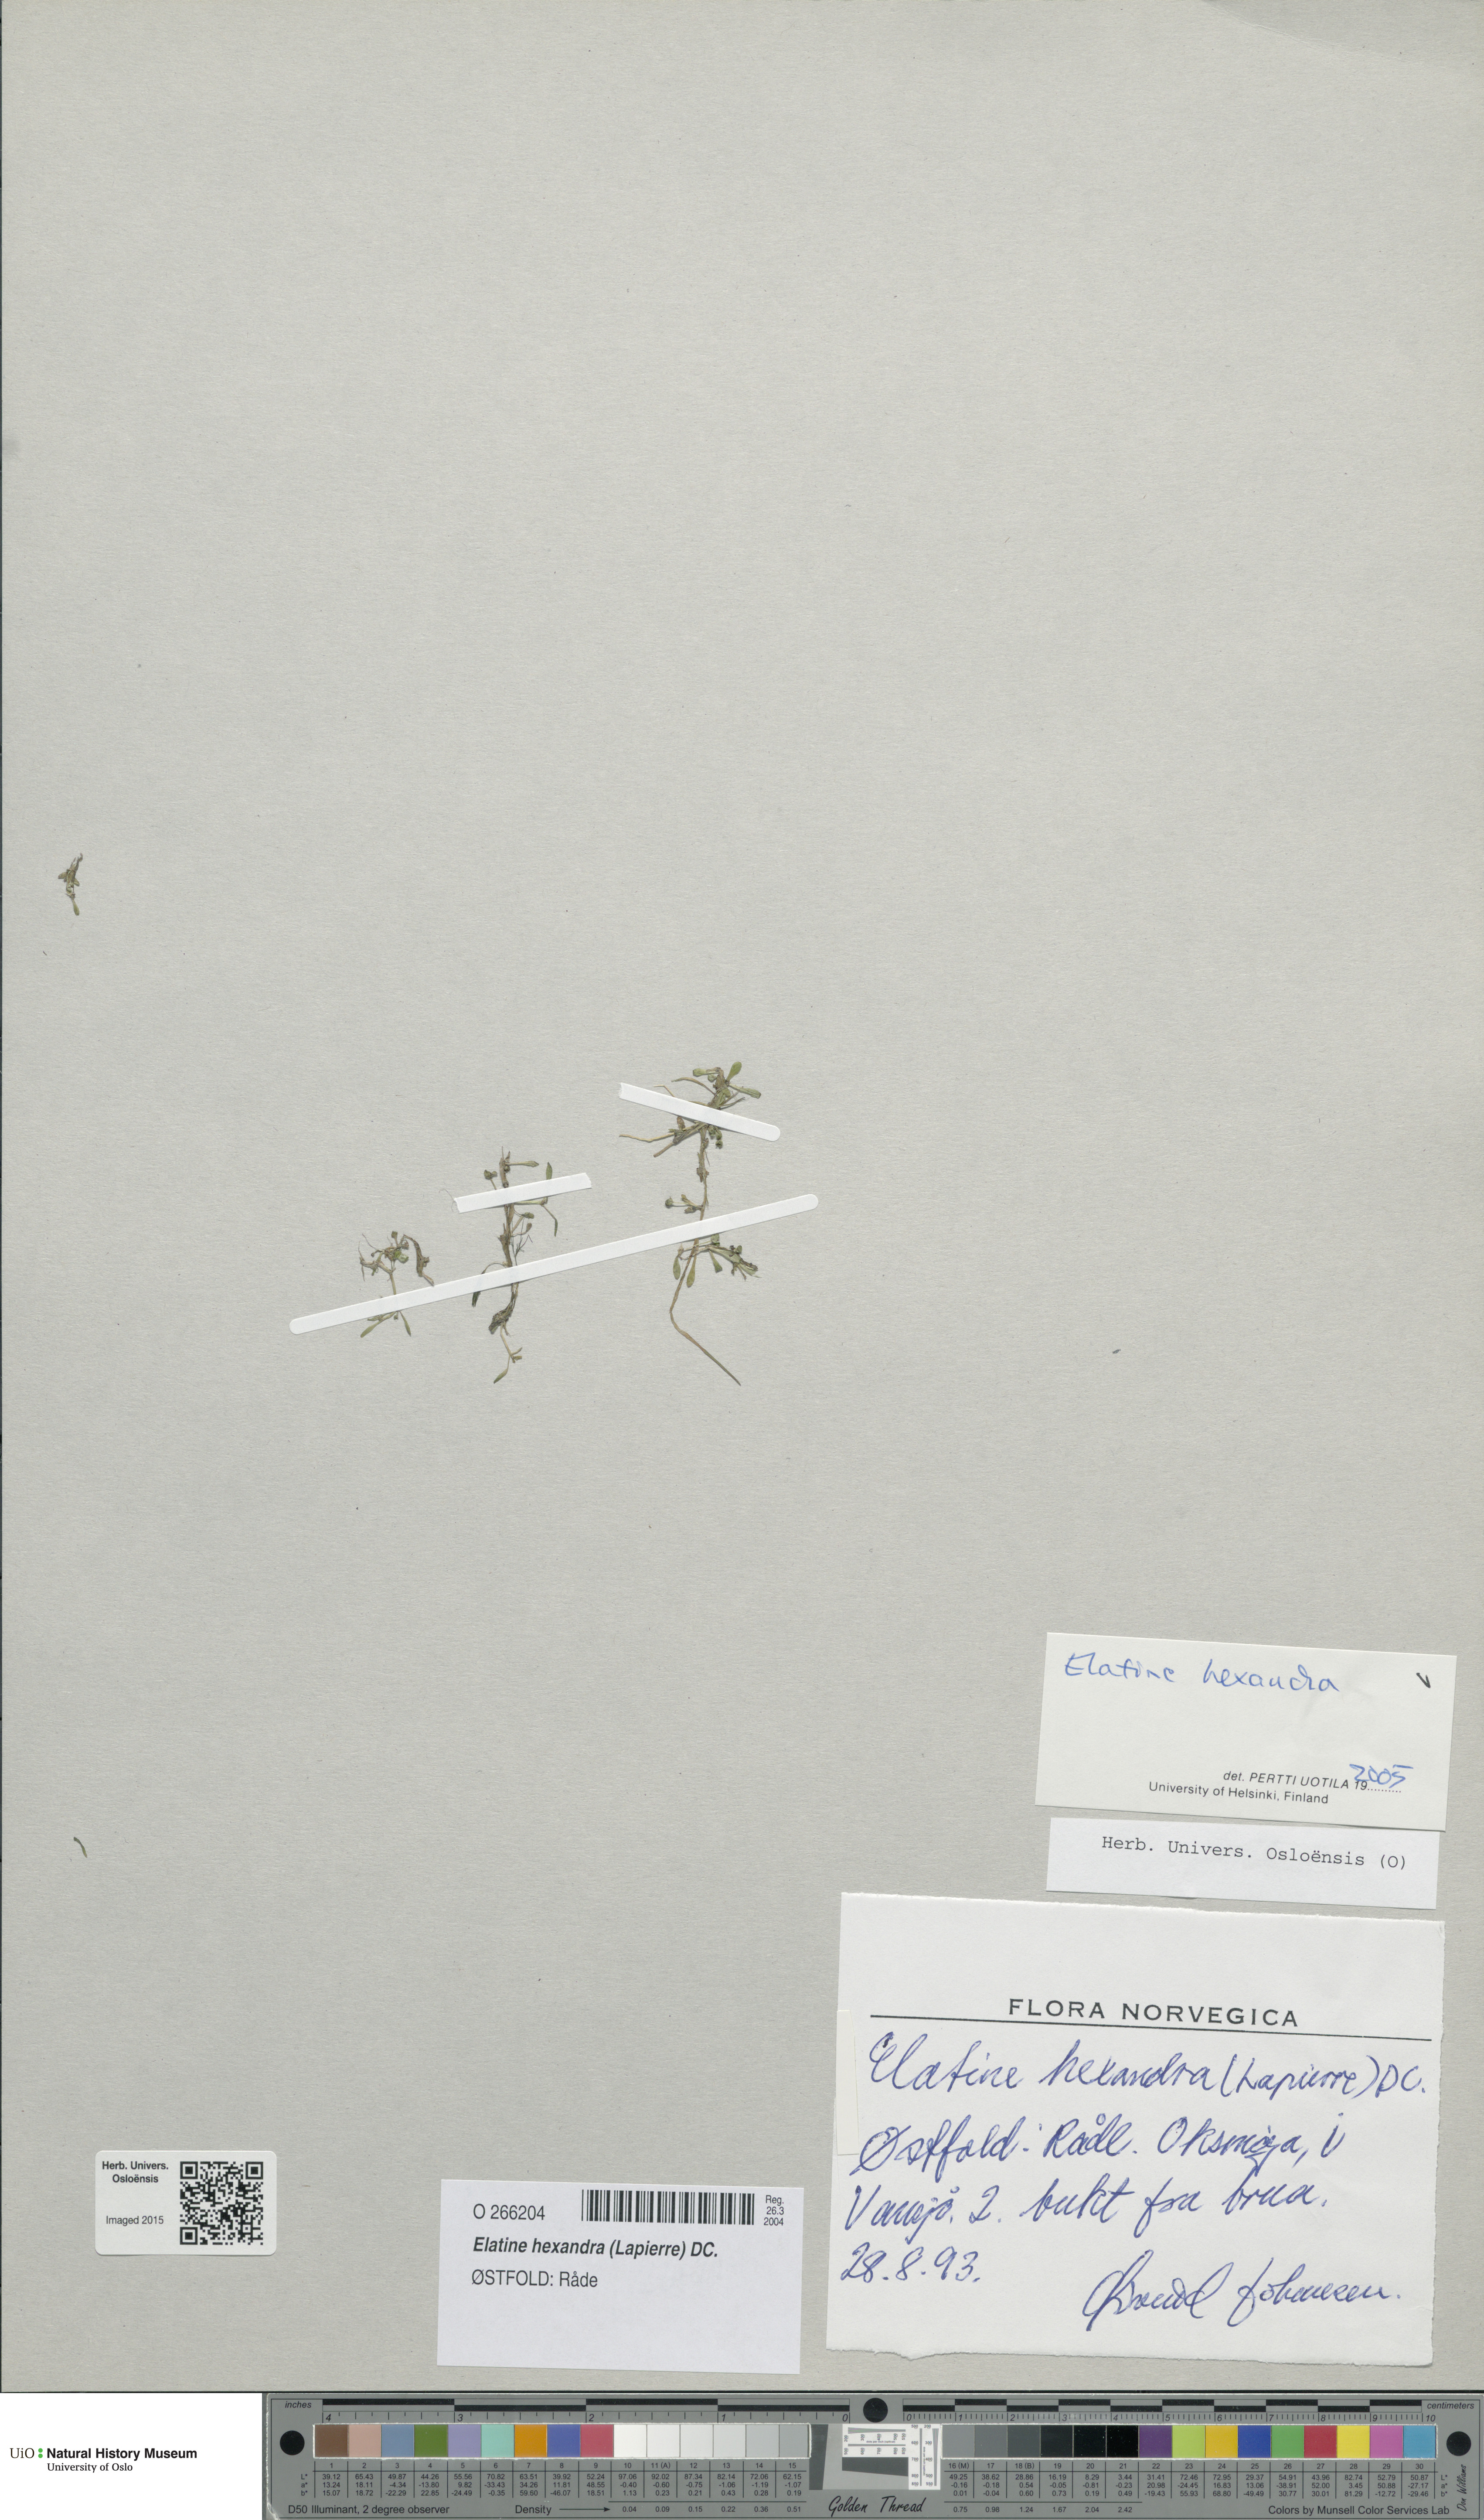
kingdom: Plantae
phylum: Tracheophyta
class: Magnoliopsida
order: Malpighiales
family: Elatinaceae
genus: Elatine
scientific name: Elatine hexandra
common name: Six-stamened waterwort
